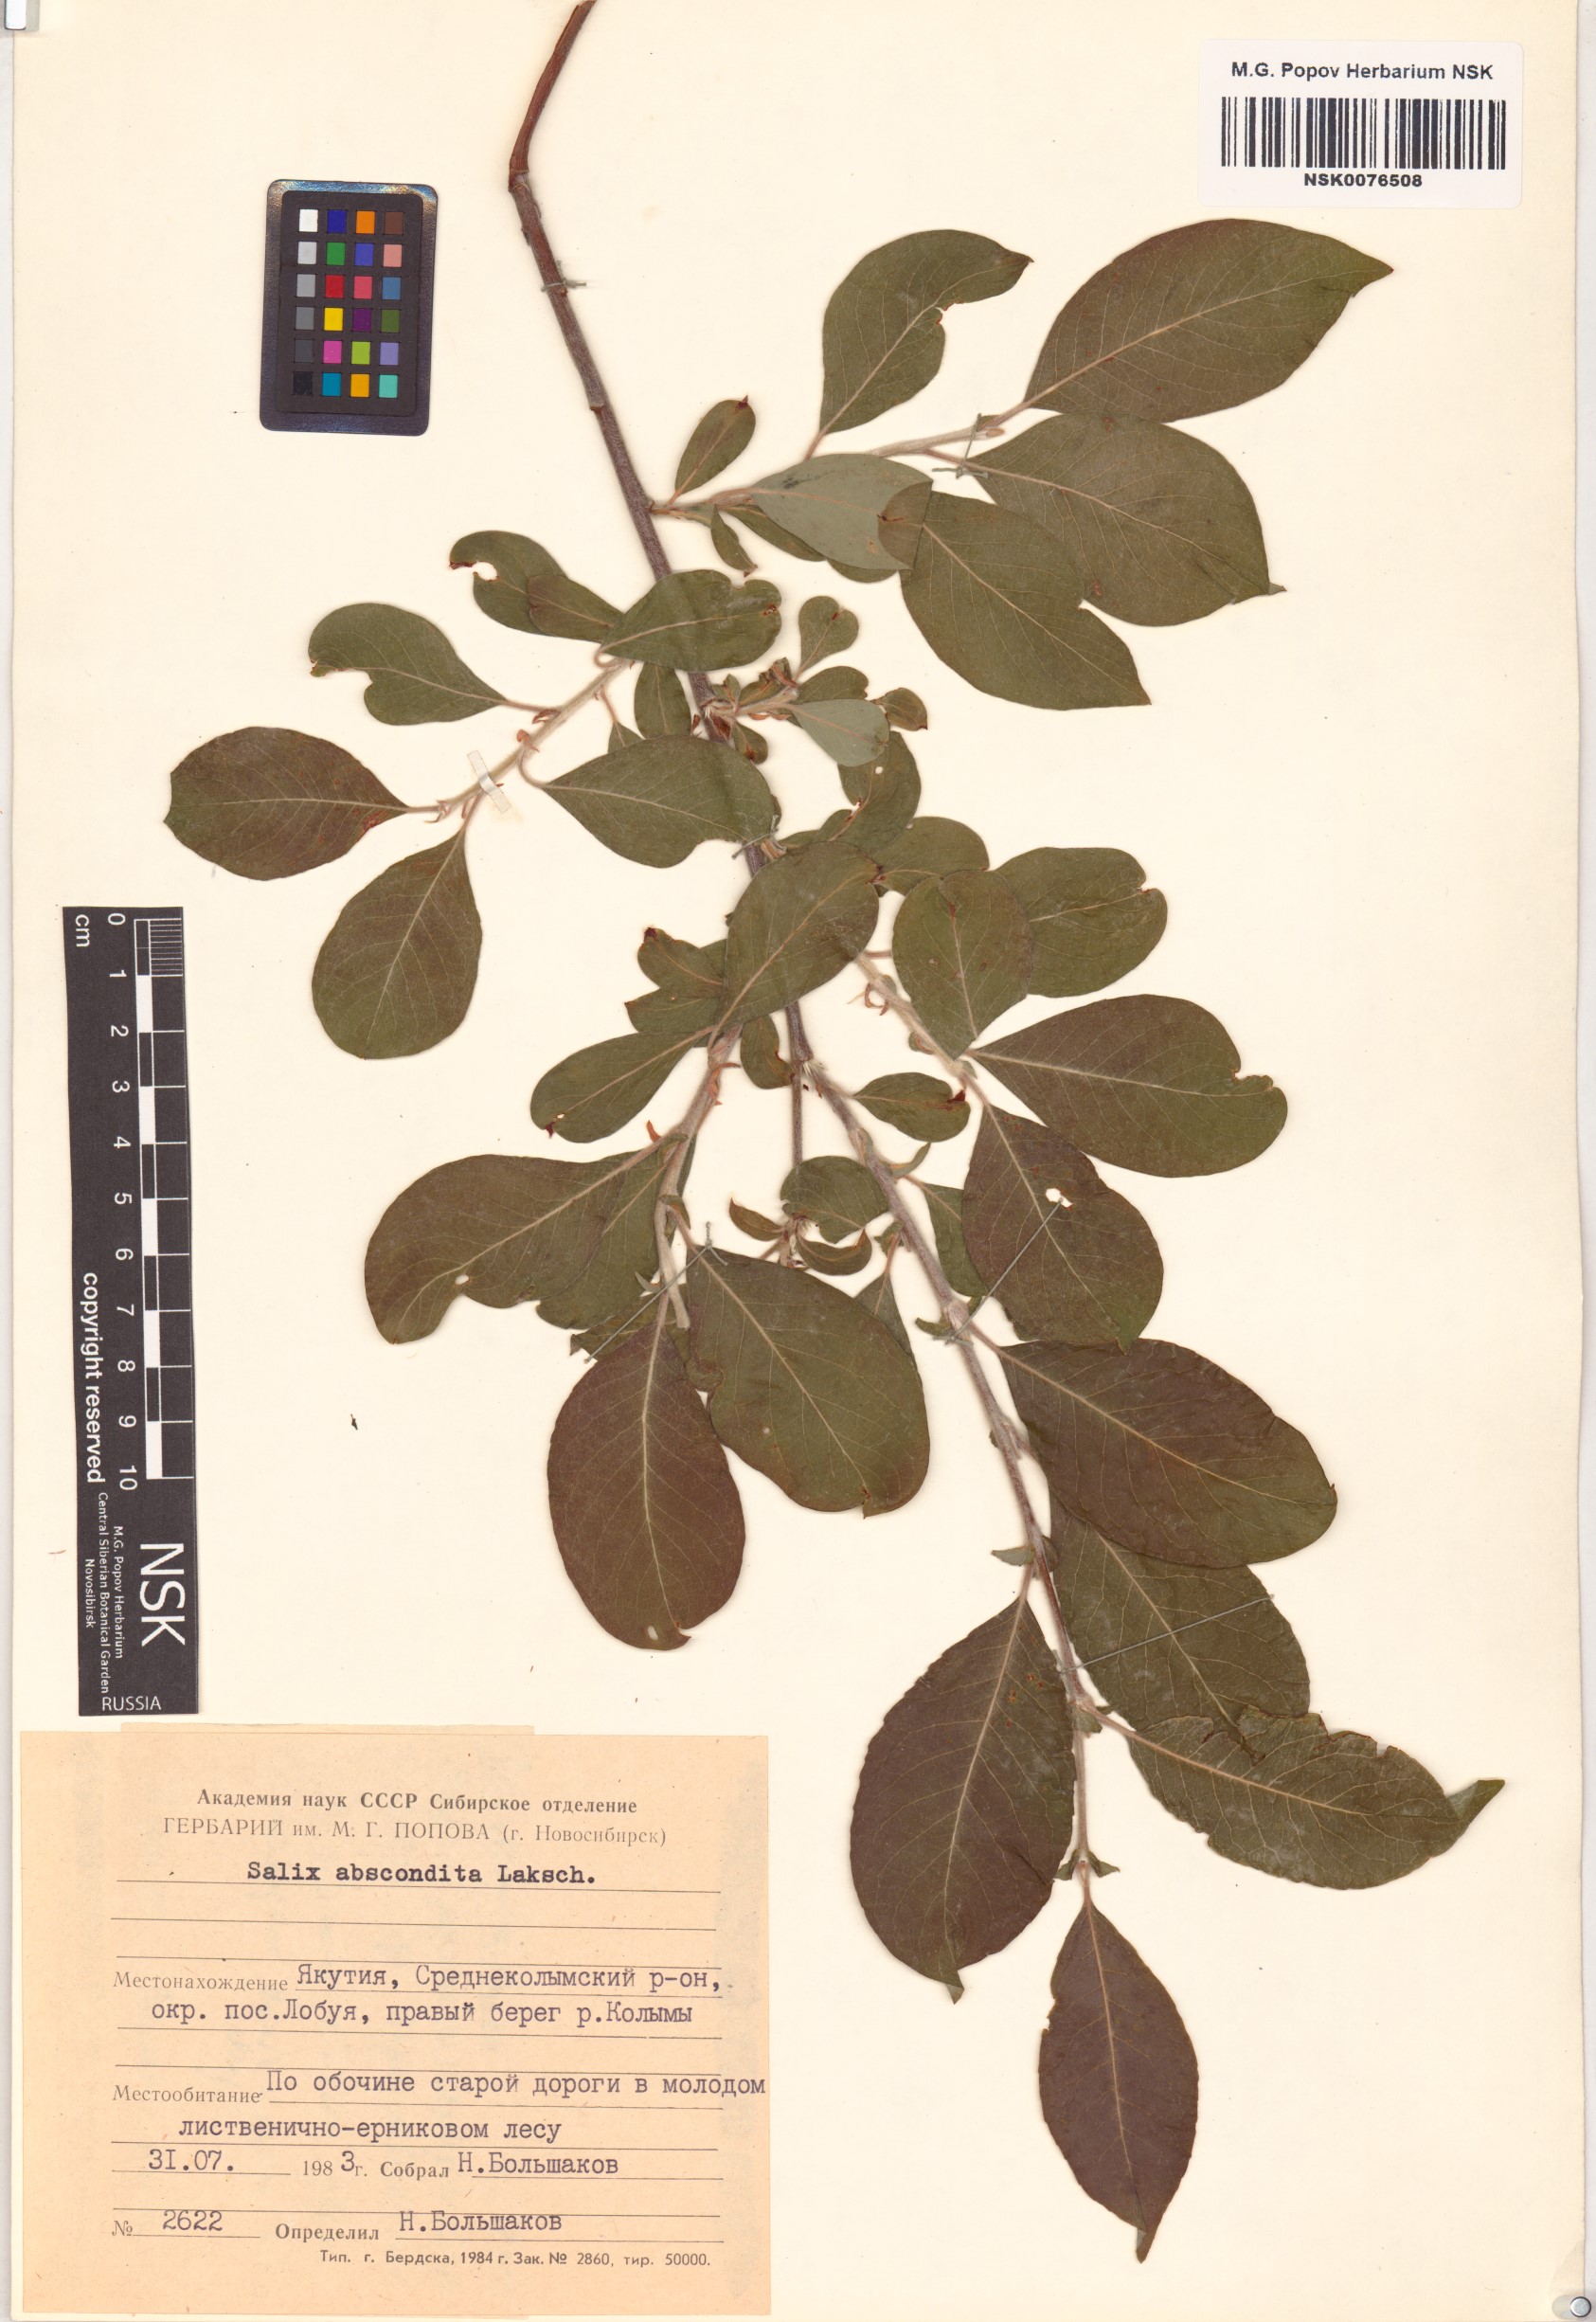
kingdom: Plantae
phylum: Tracheophyta
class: Magnoliopsida
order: Malpighiales
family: Salicaceae
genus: Salix
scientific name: Salix abscondita
